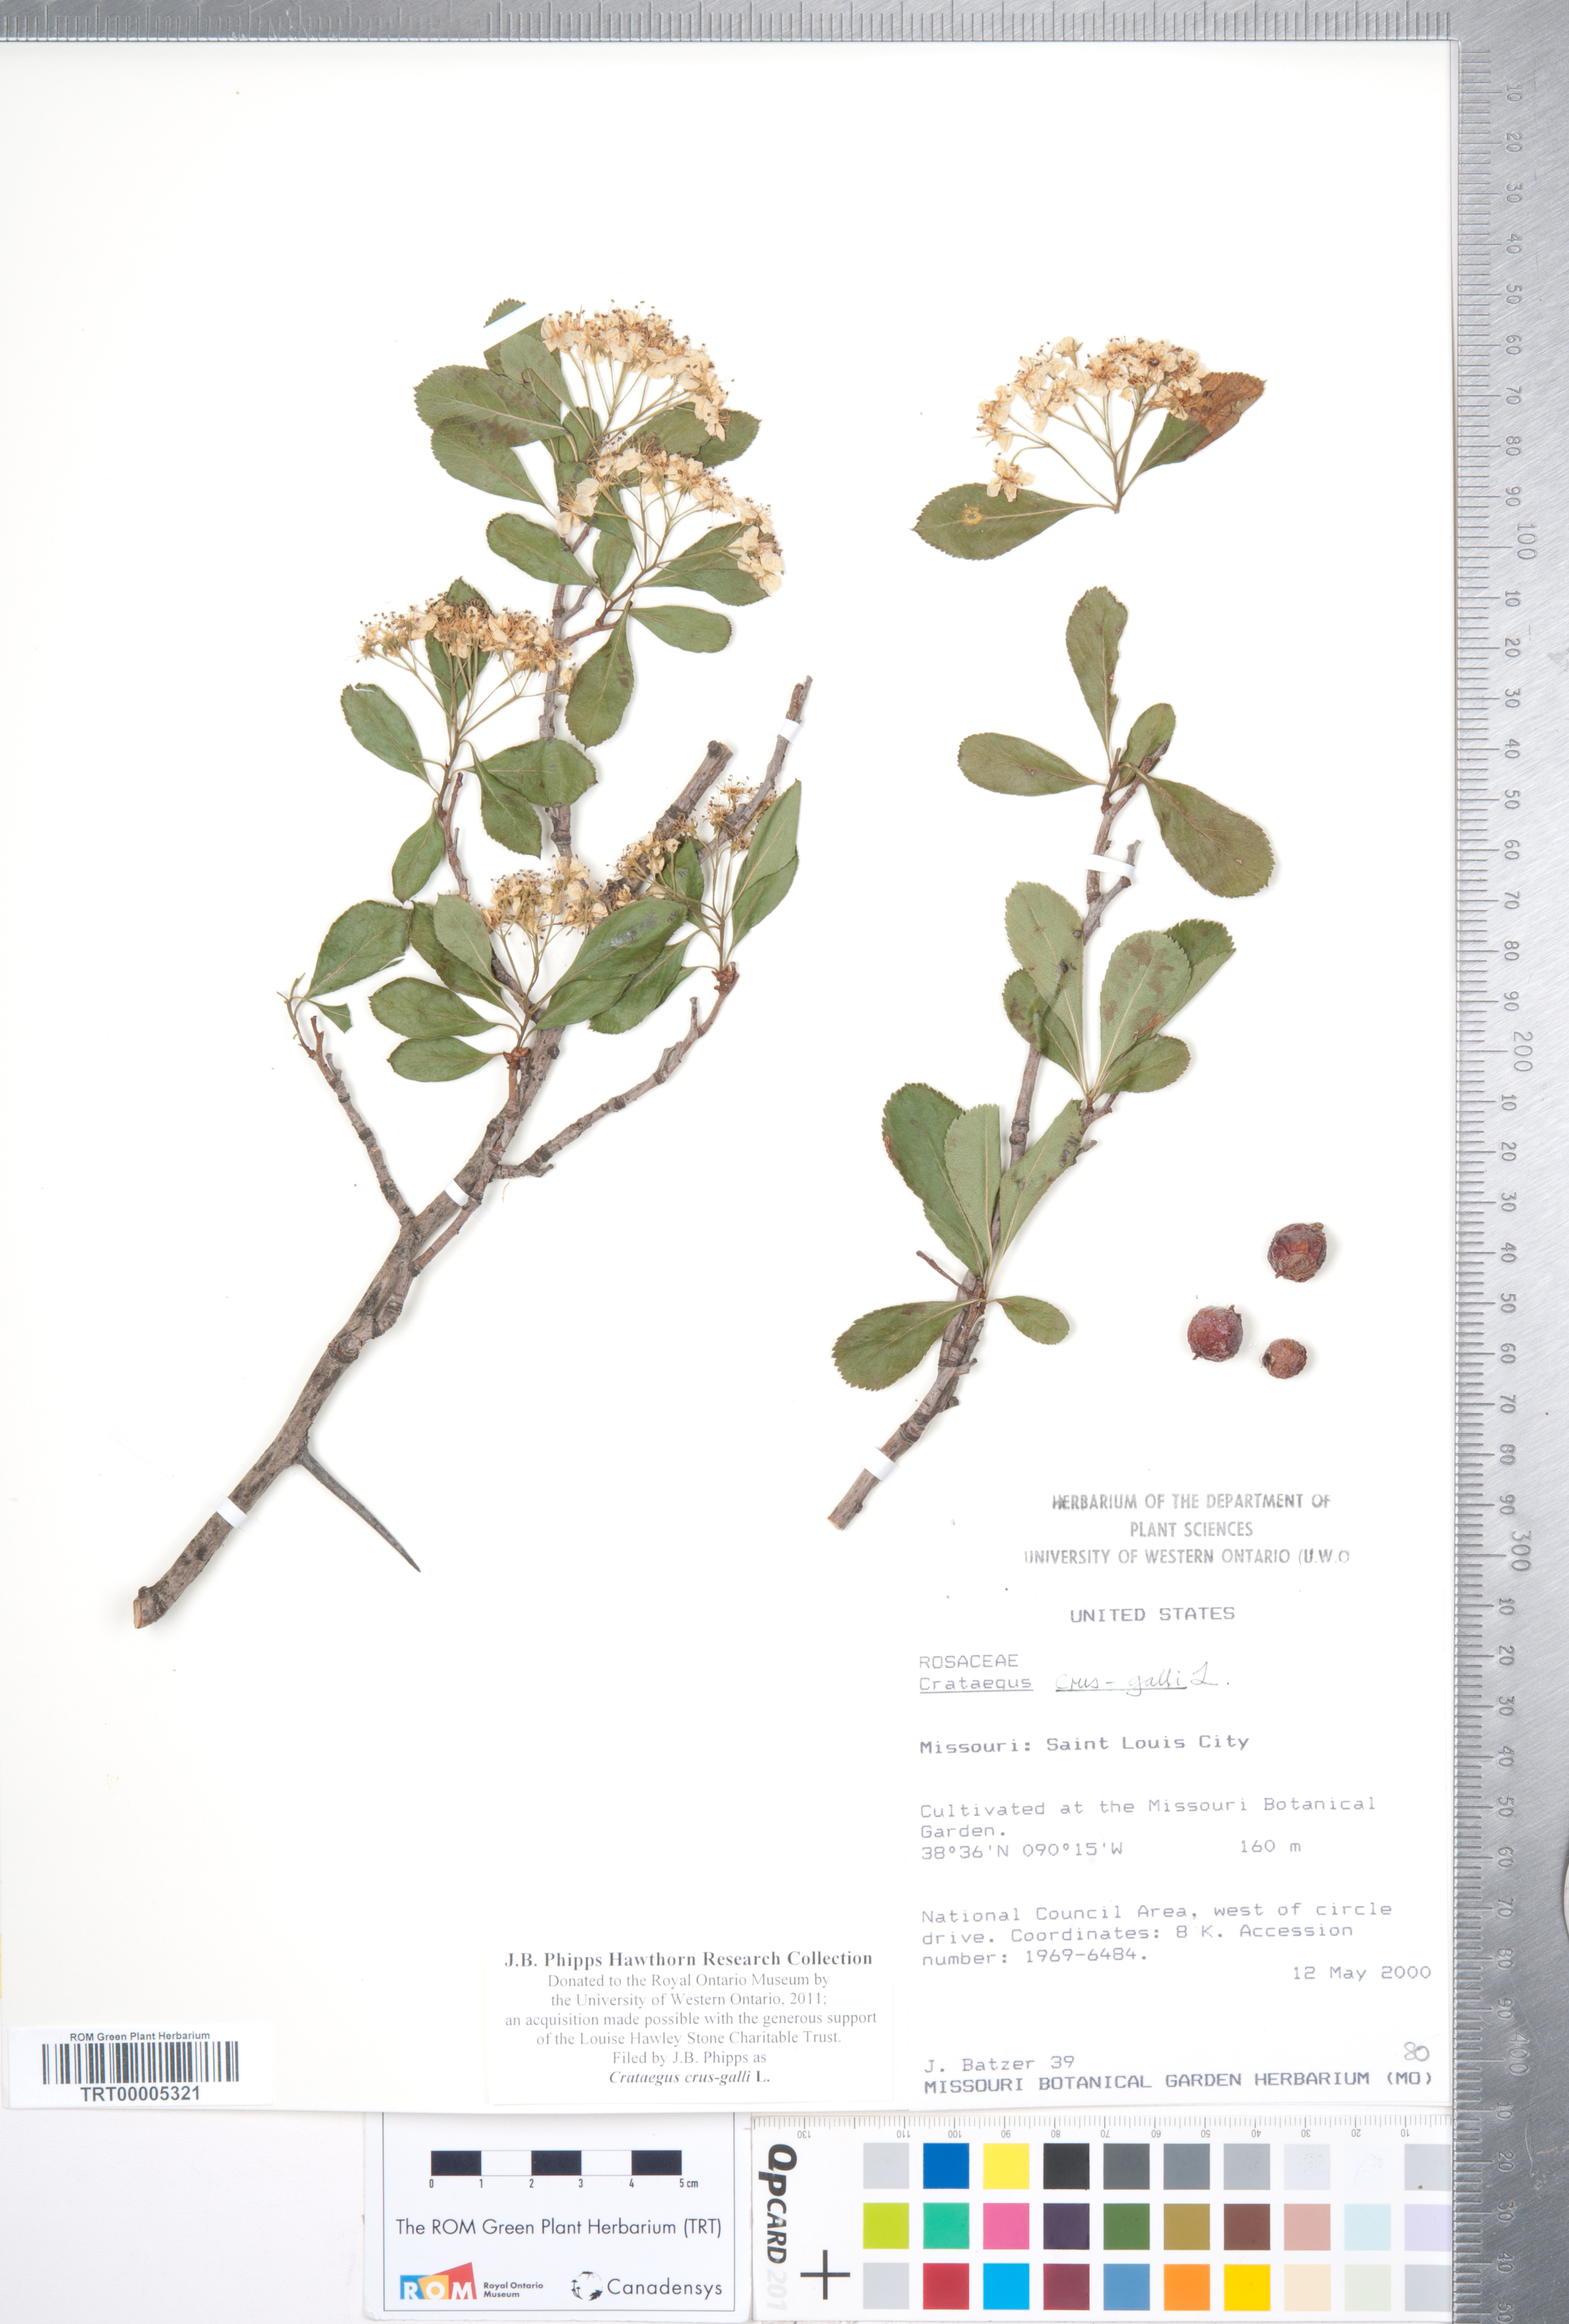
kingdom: Plantae
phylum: Tracheophyta
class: Magnoliopsida
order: Rosales
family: Rosaceae
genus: Crataegus
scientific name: Crataegus crus-galli
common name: Cockspurthorn
